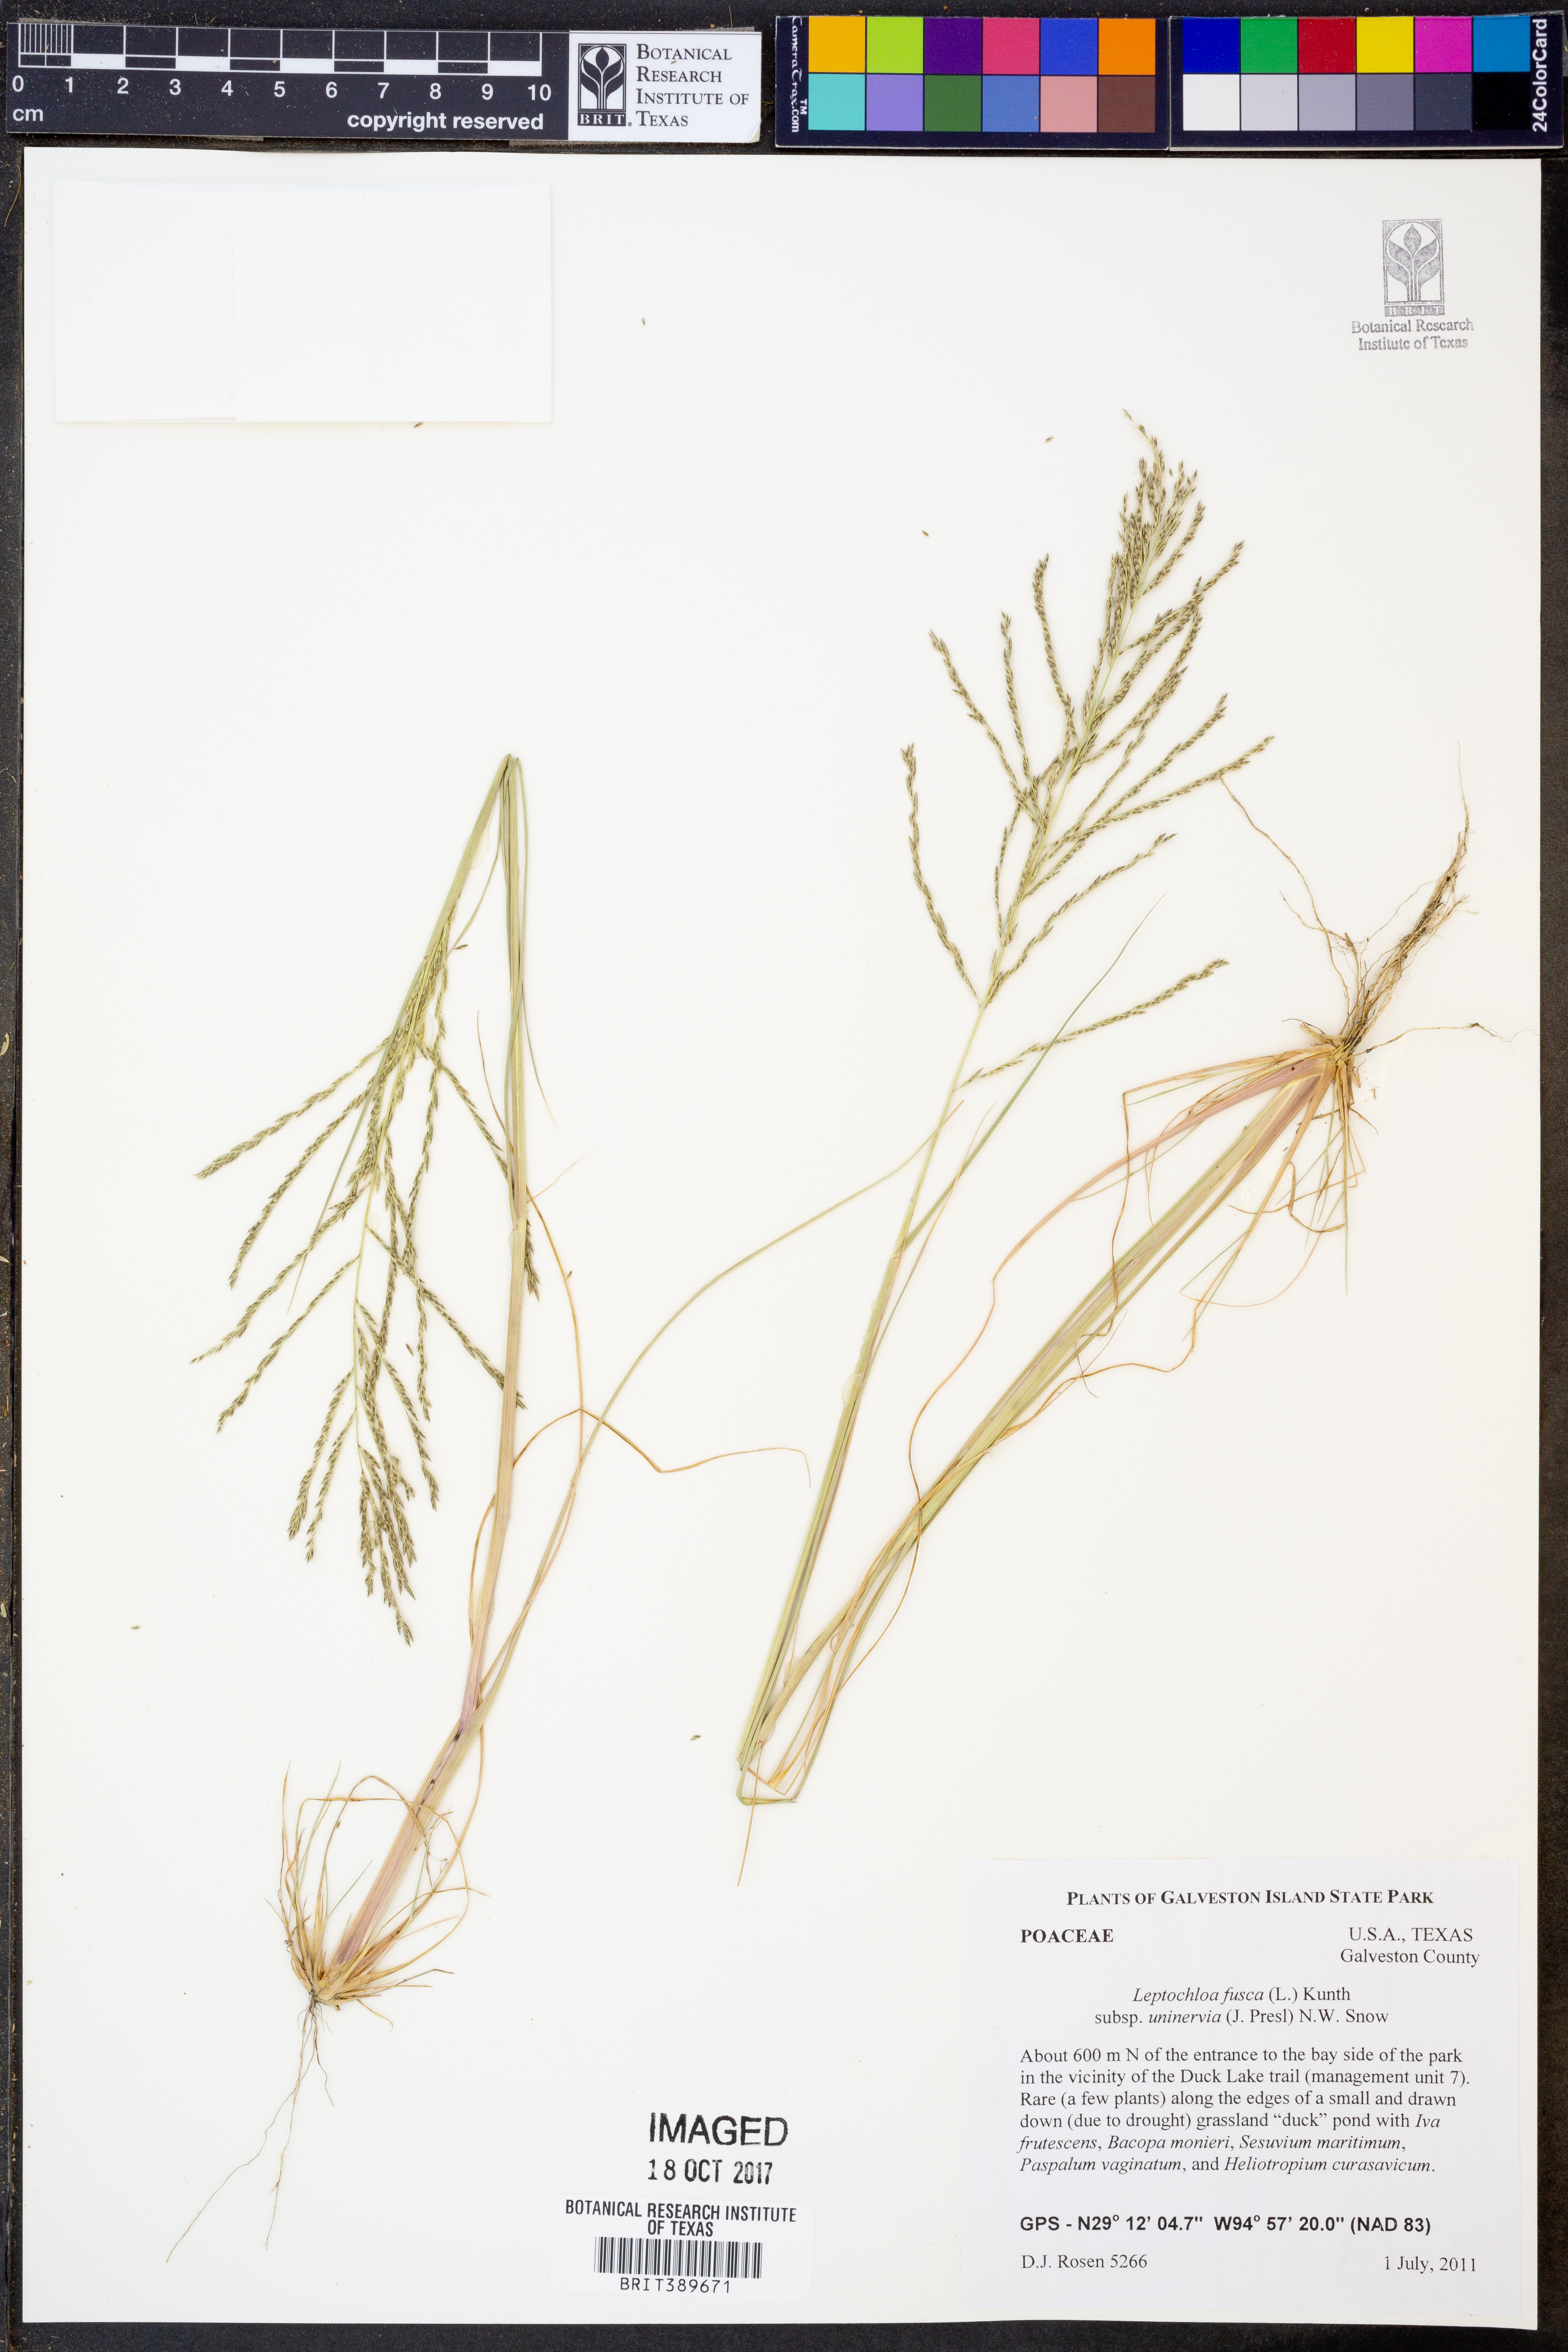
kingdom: Plantae
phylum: Tracheophyta
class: Liliopsida
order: Poales
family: Poaceae
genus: Diplachne
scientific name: Diplachne fusca
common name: Brown beetle grass
